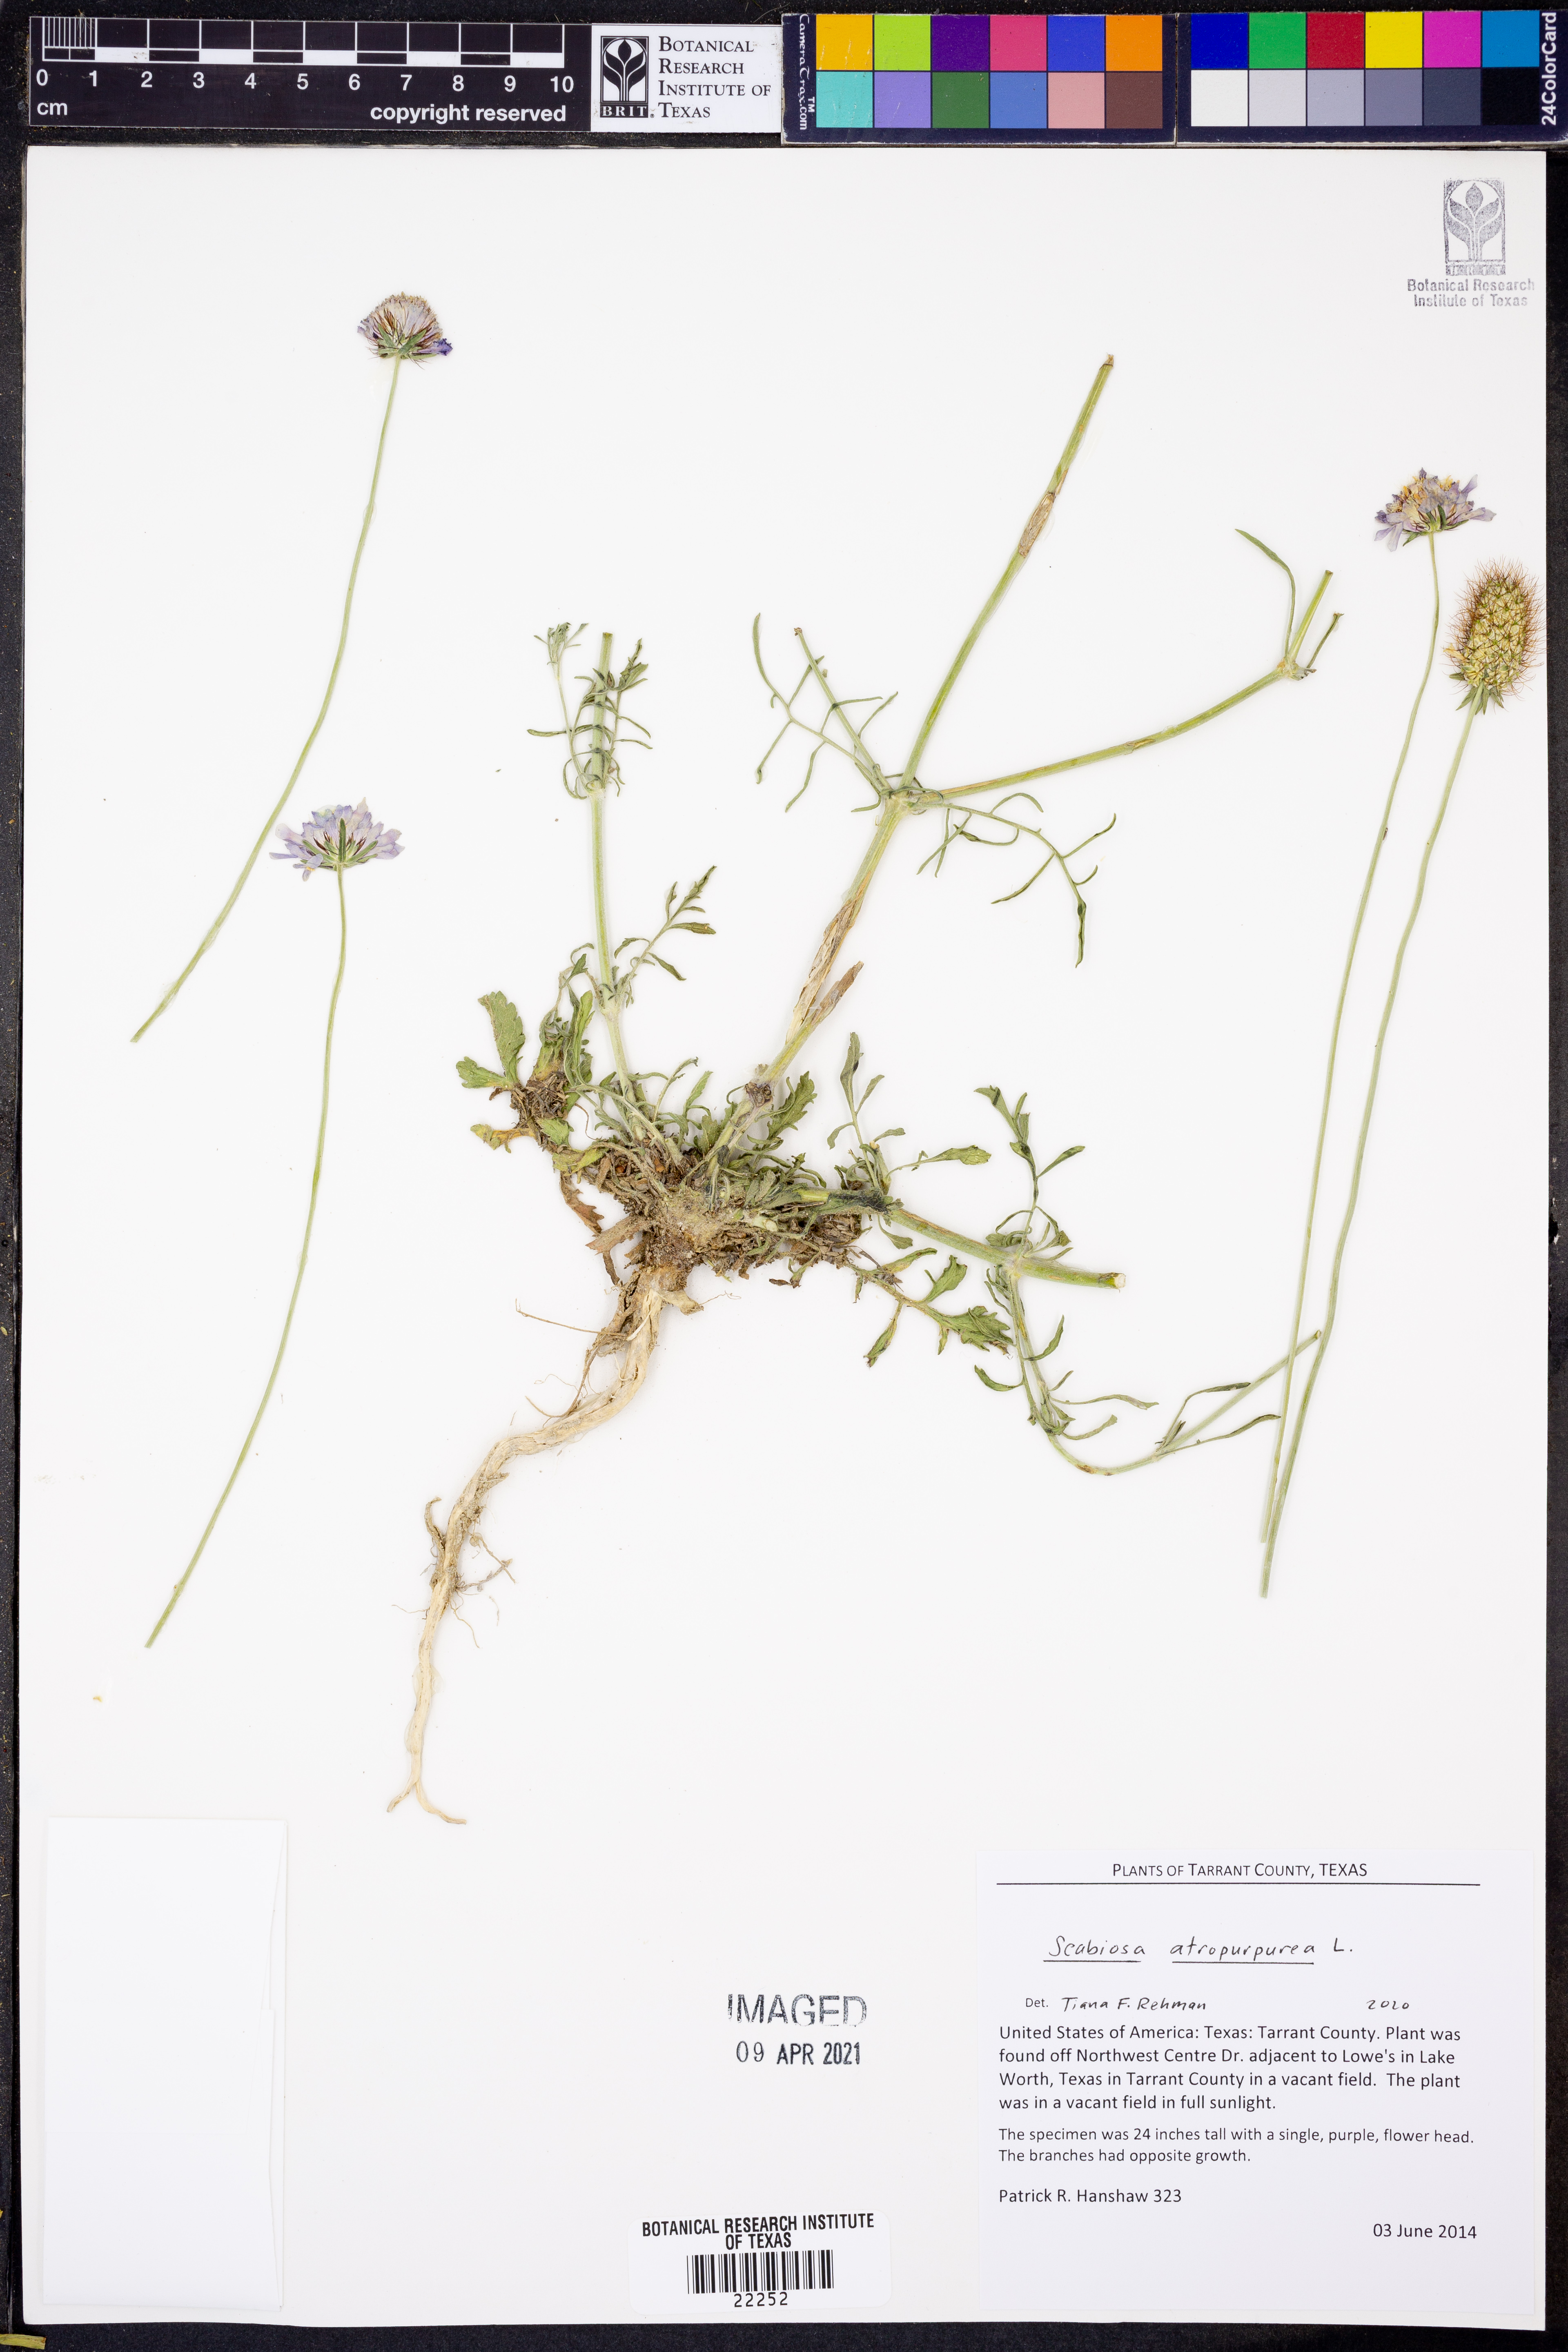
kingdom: Plantae
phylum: Tracheophyta
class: Magnoliopsida
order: Dipsacales
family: Caprifoliaceae
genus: Sixalix
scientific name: Sixalix atropurpurea
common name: Sweet scabious
